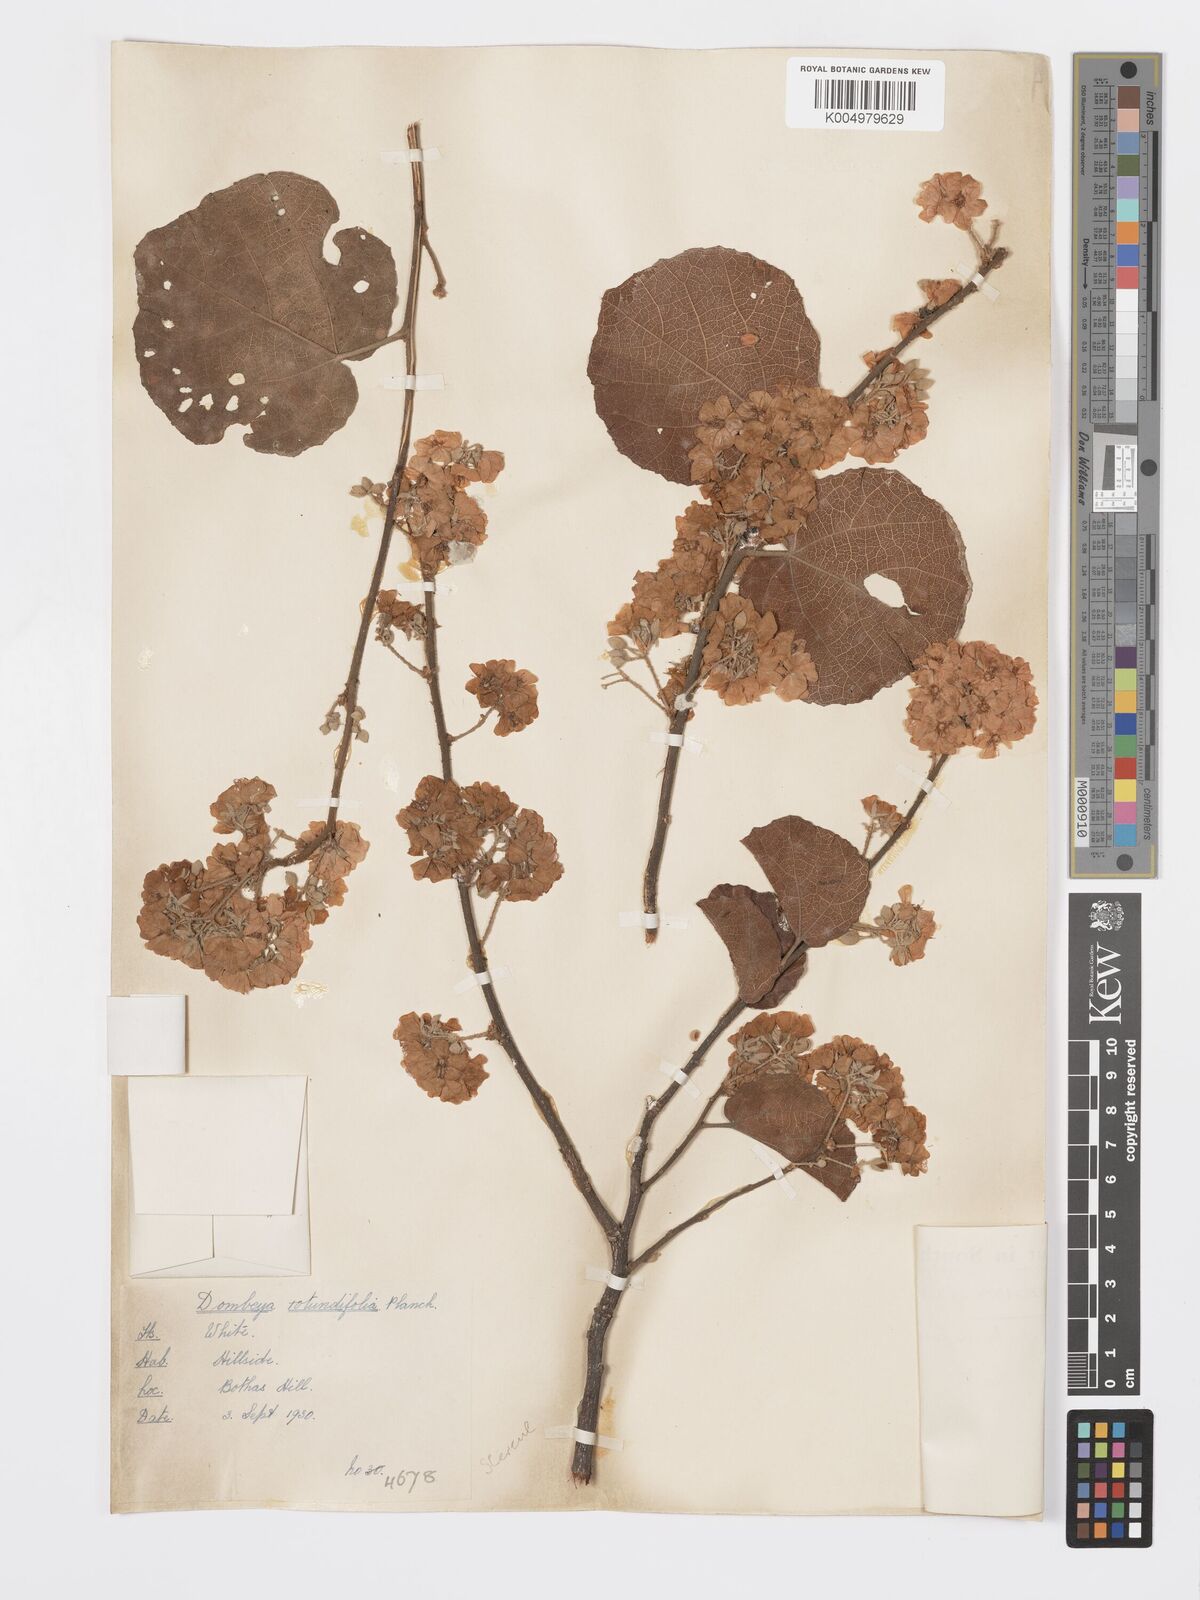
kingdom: Plantae
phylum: Tracheophyta
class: Magnoliopsida
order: Malvales
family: Malvaceae
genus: Dombeya
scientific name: Dombeya rotundifolia
